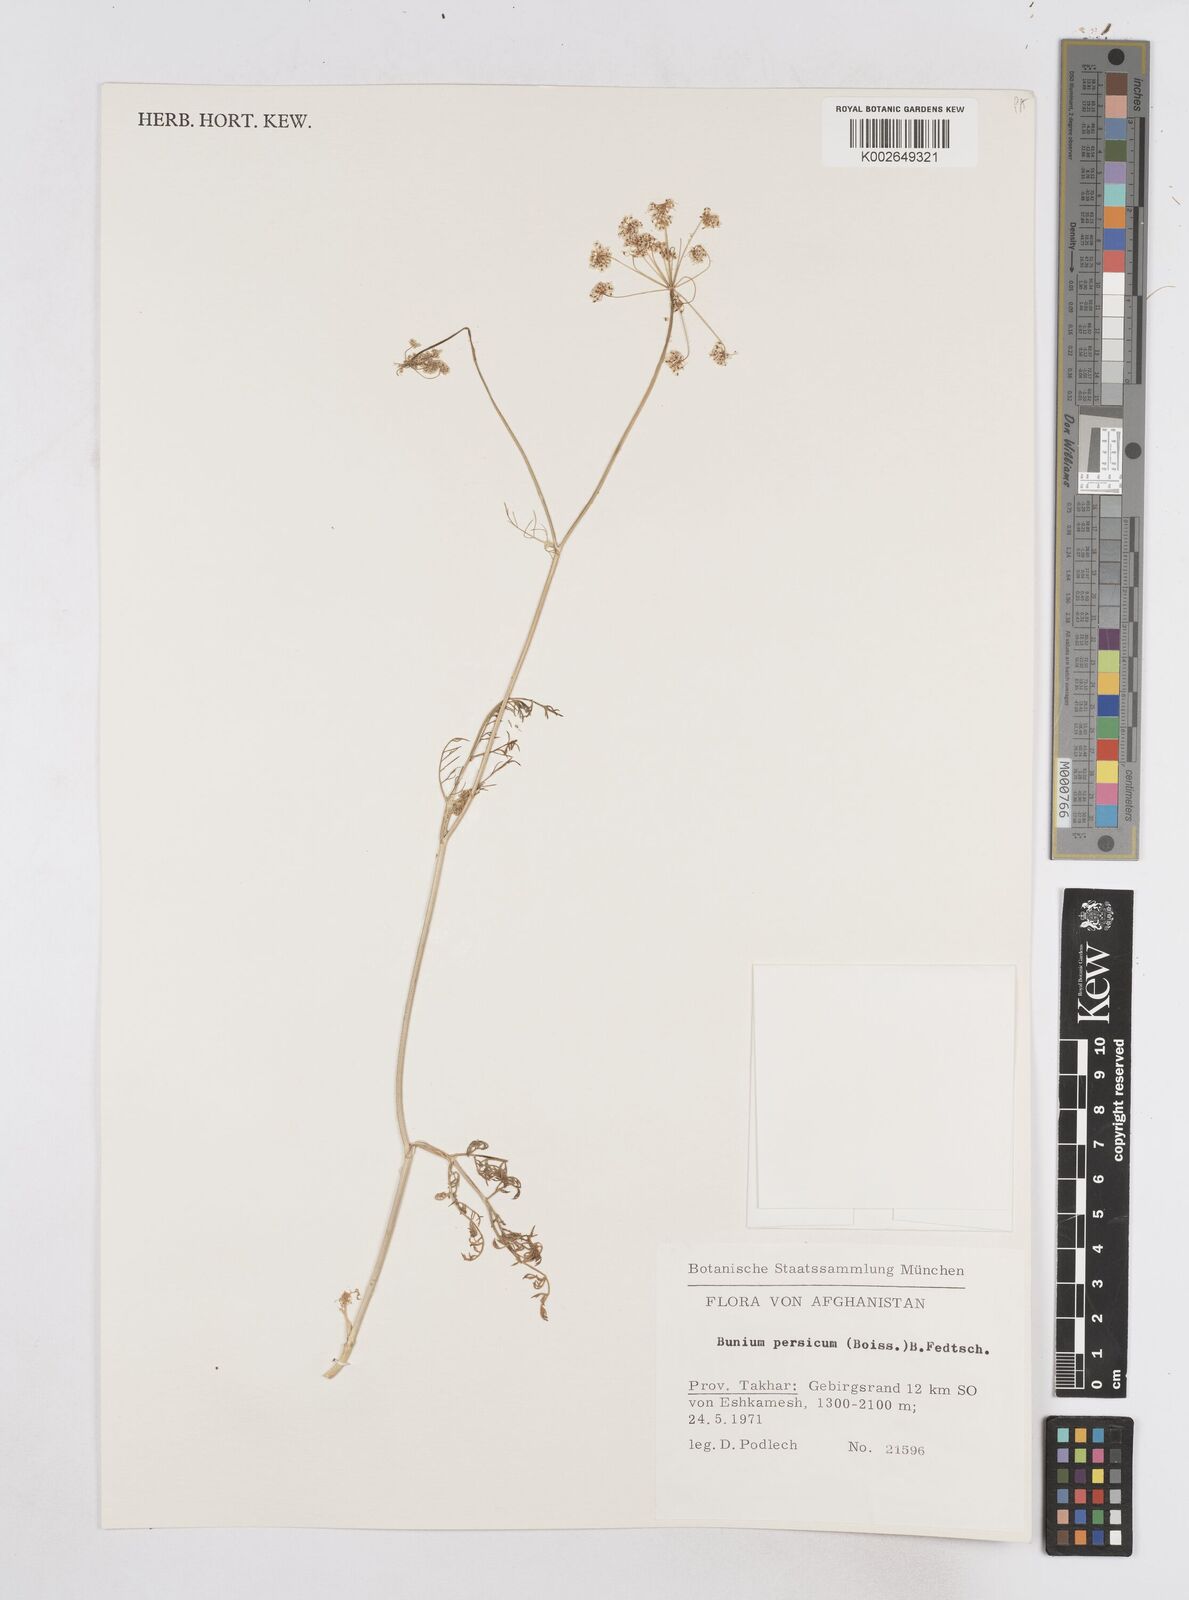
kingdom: Plantae
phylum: Tracheophyta
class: Magnoliopsida
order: Apiales
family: Apiaceae
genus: Elwendia
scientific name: Elwendia persica
